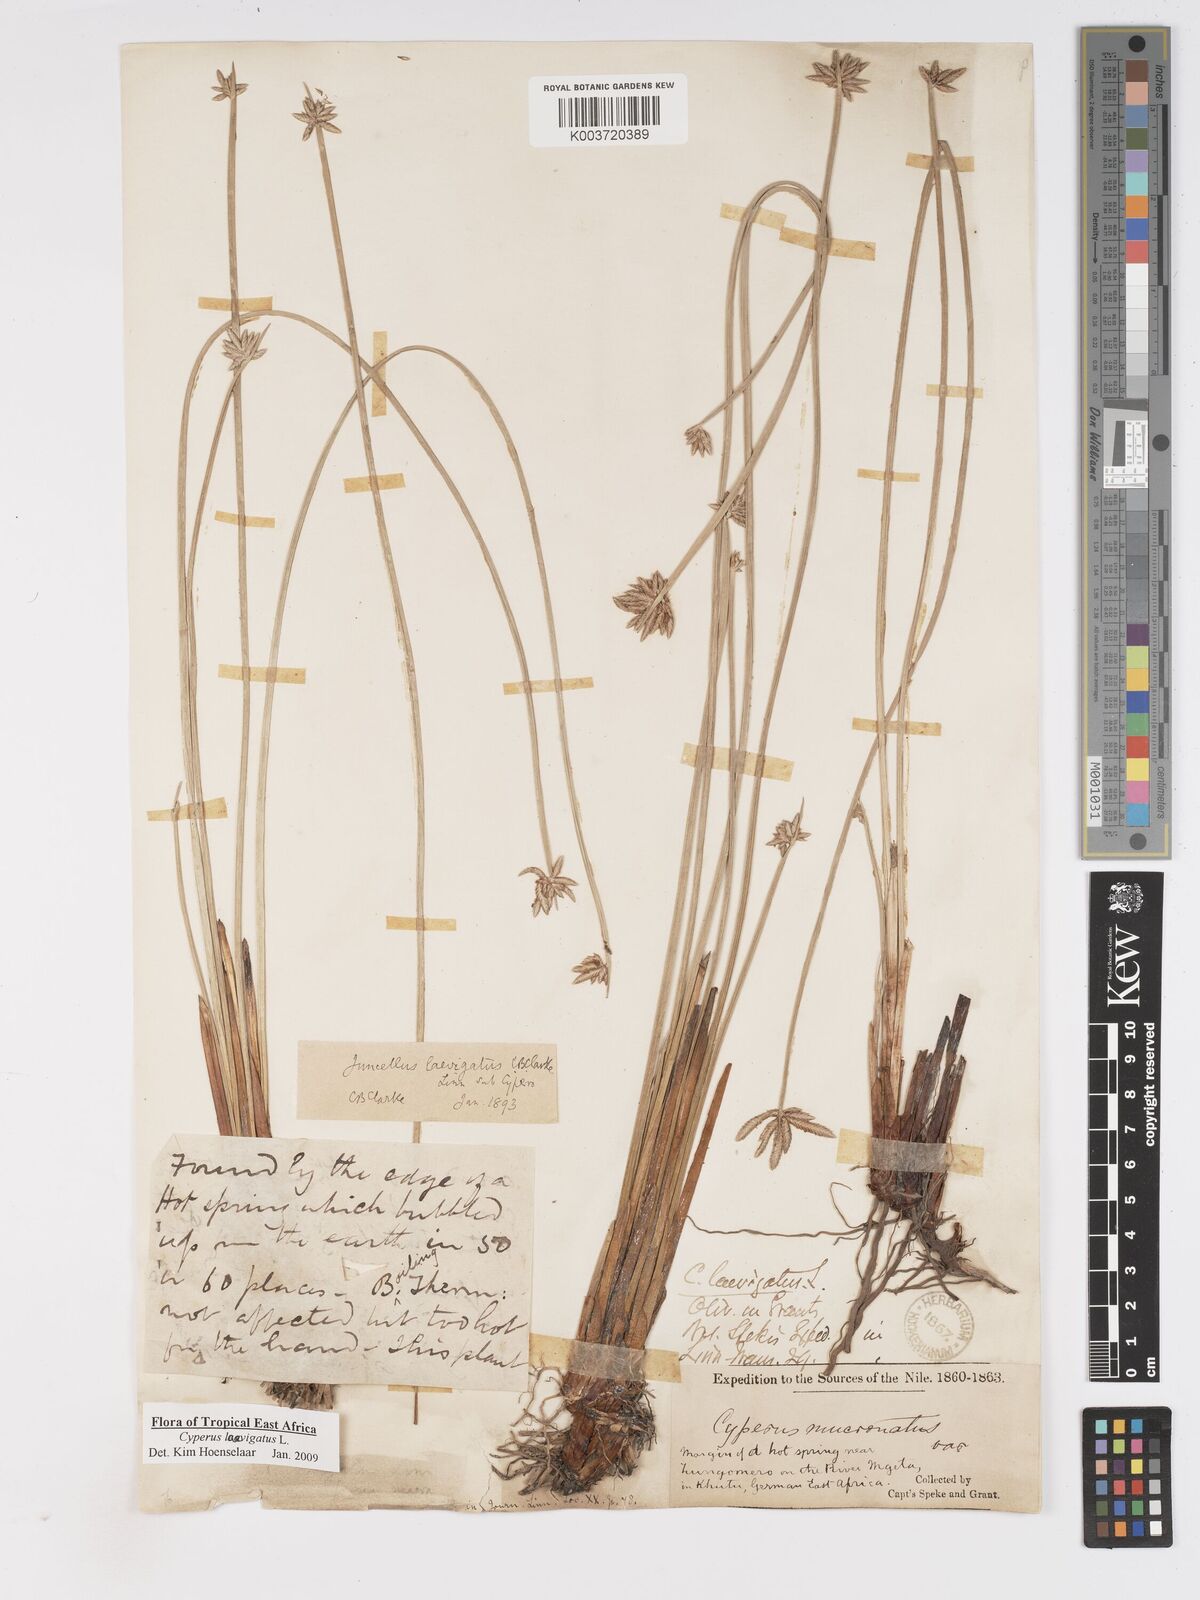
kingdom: Plantae
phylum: Tracheophyta
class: Liliopsida
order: Poales
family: Cyperaceae
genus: Cyperus
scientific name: Cyperus laevigatus
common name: Smooth flat sedge
